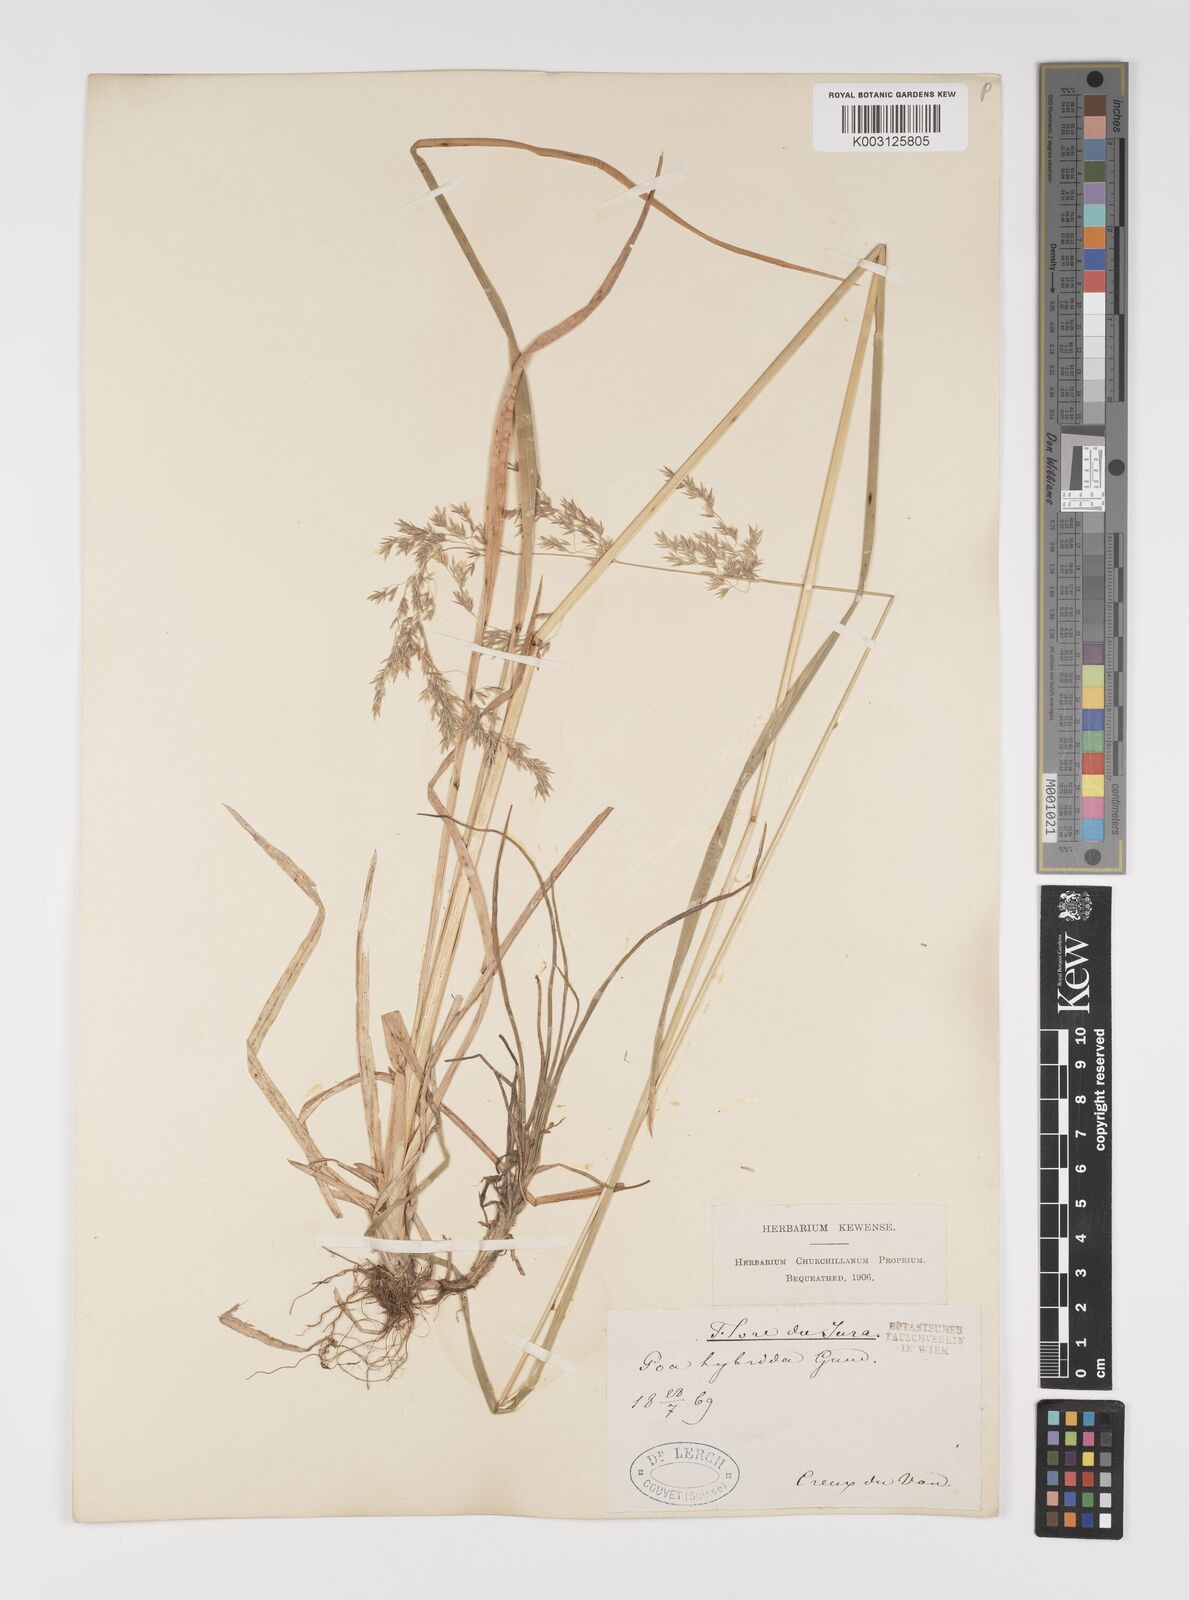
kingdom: Plantae
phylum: Tracheophyta
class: Liliopsida
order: Poales
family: Poaceae
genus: Poa
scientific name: Poa hybrida
